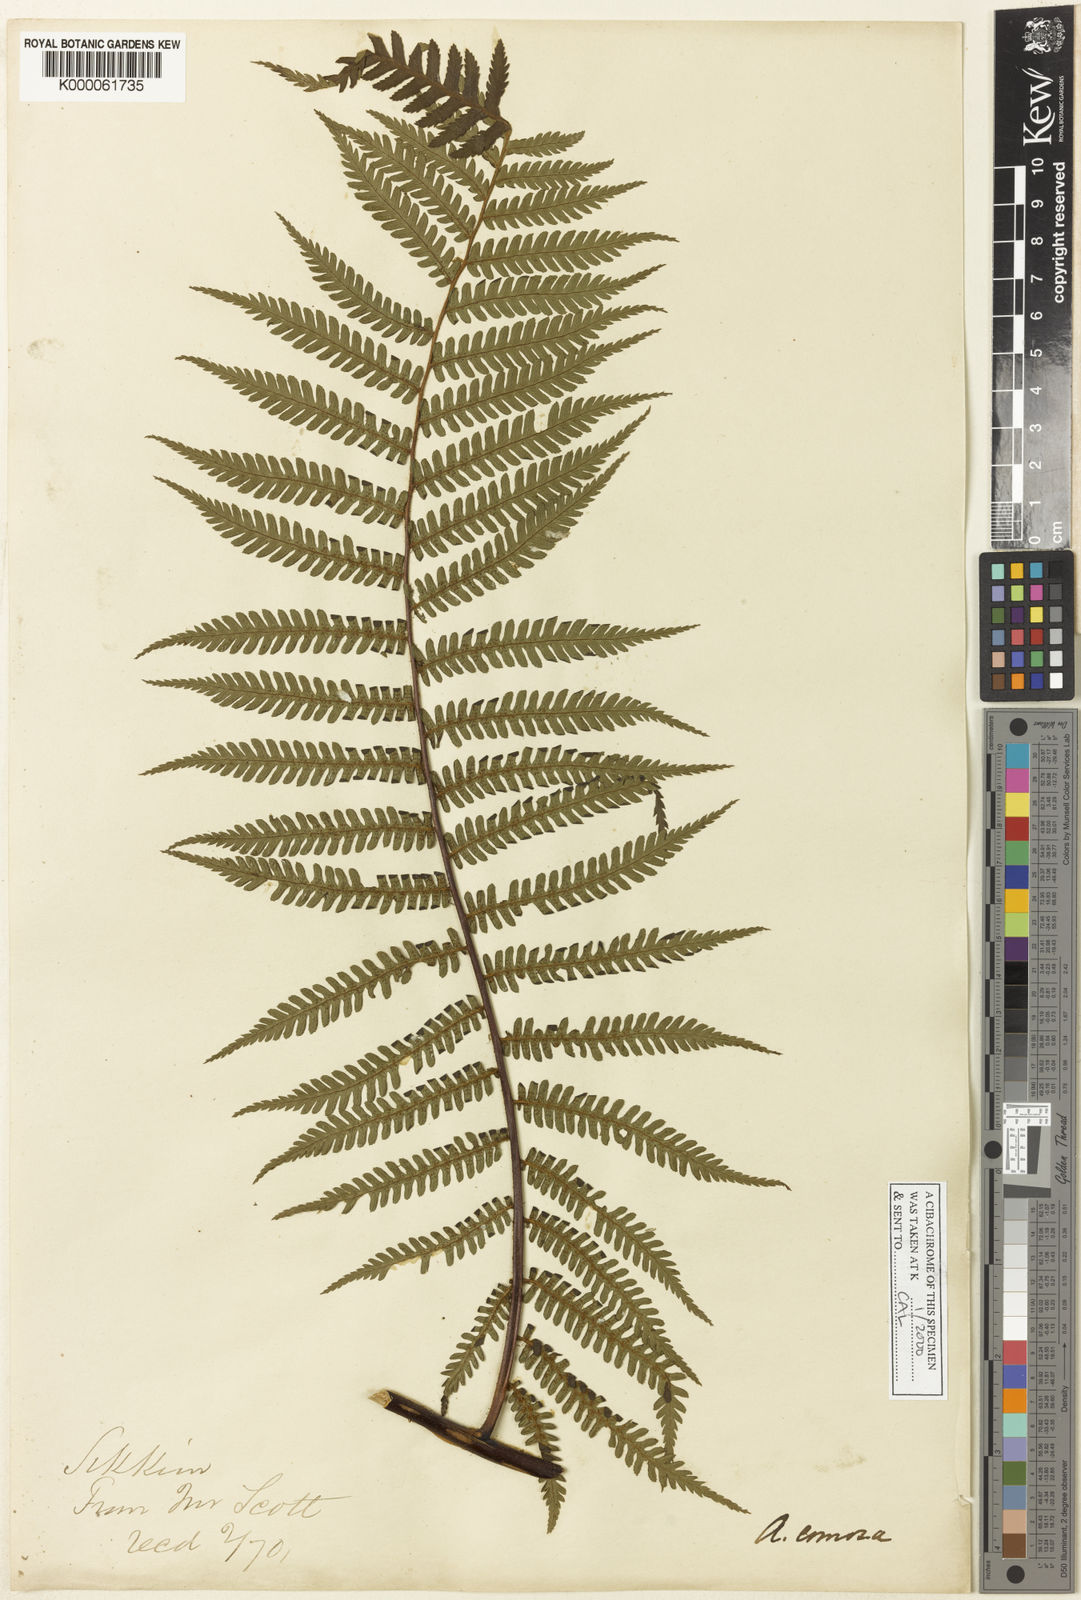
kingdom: Plantae
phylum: Tracheophyta
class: Polypodiopsida
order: Cyatheales
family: Cyatheaceae
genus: Gymnosphaera
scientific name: Gymnosphaera khasyana
